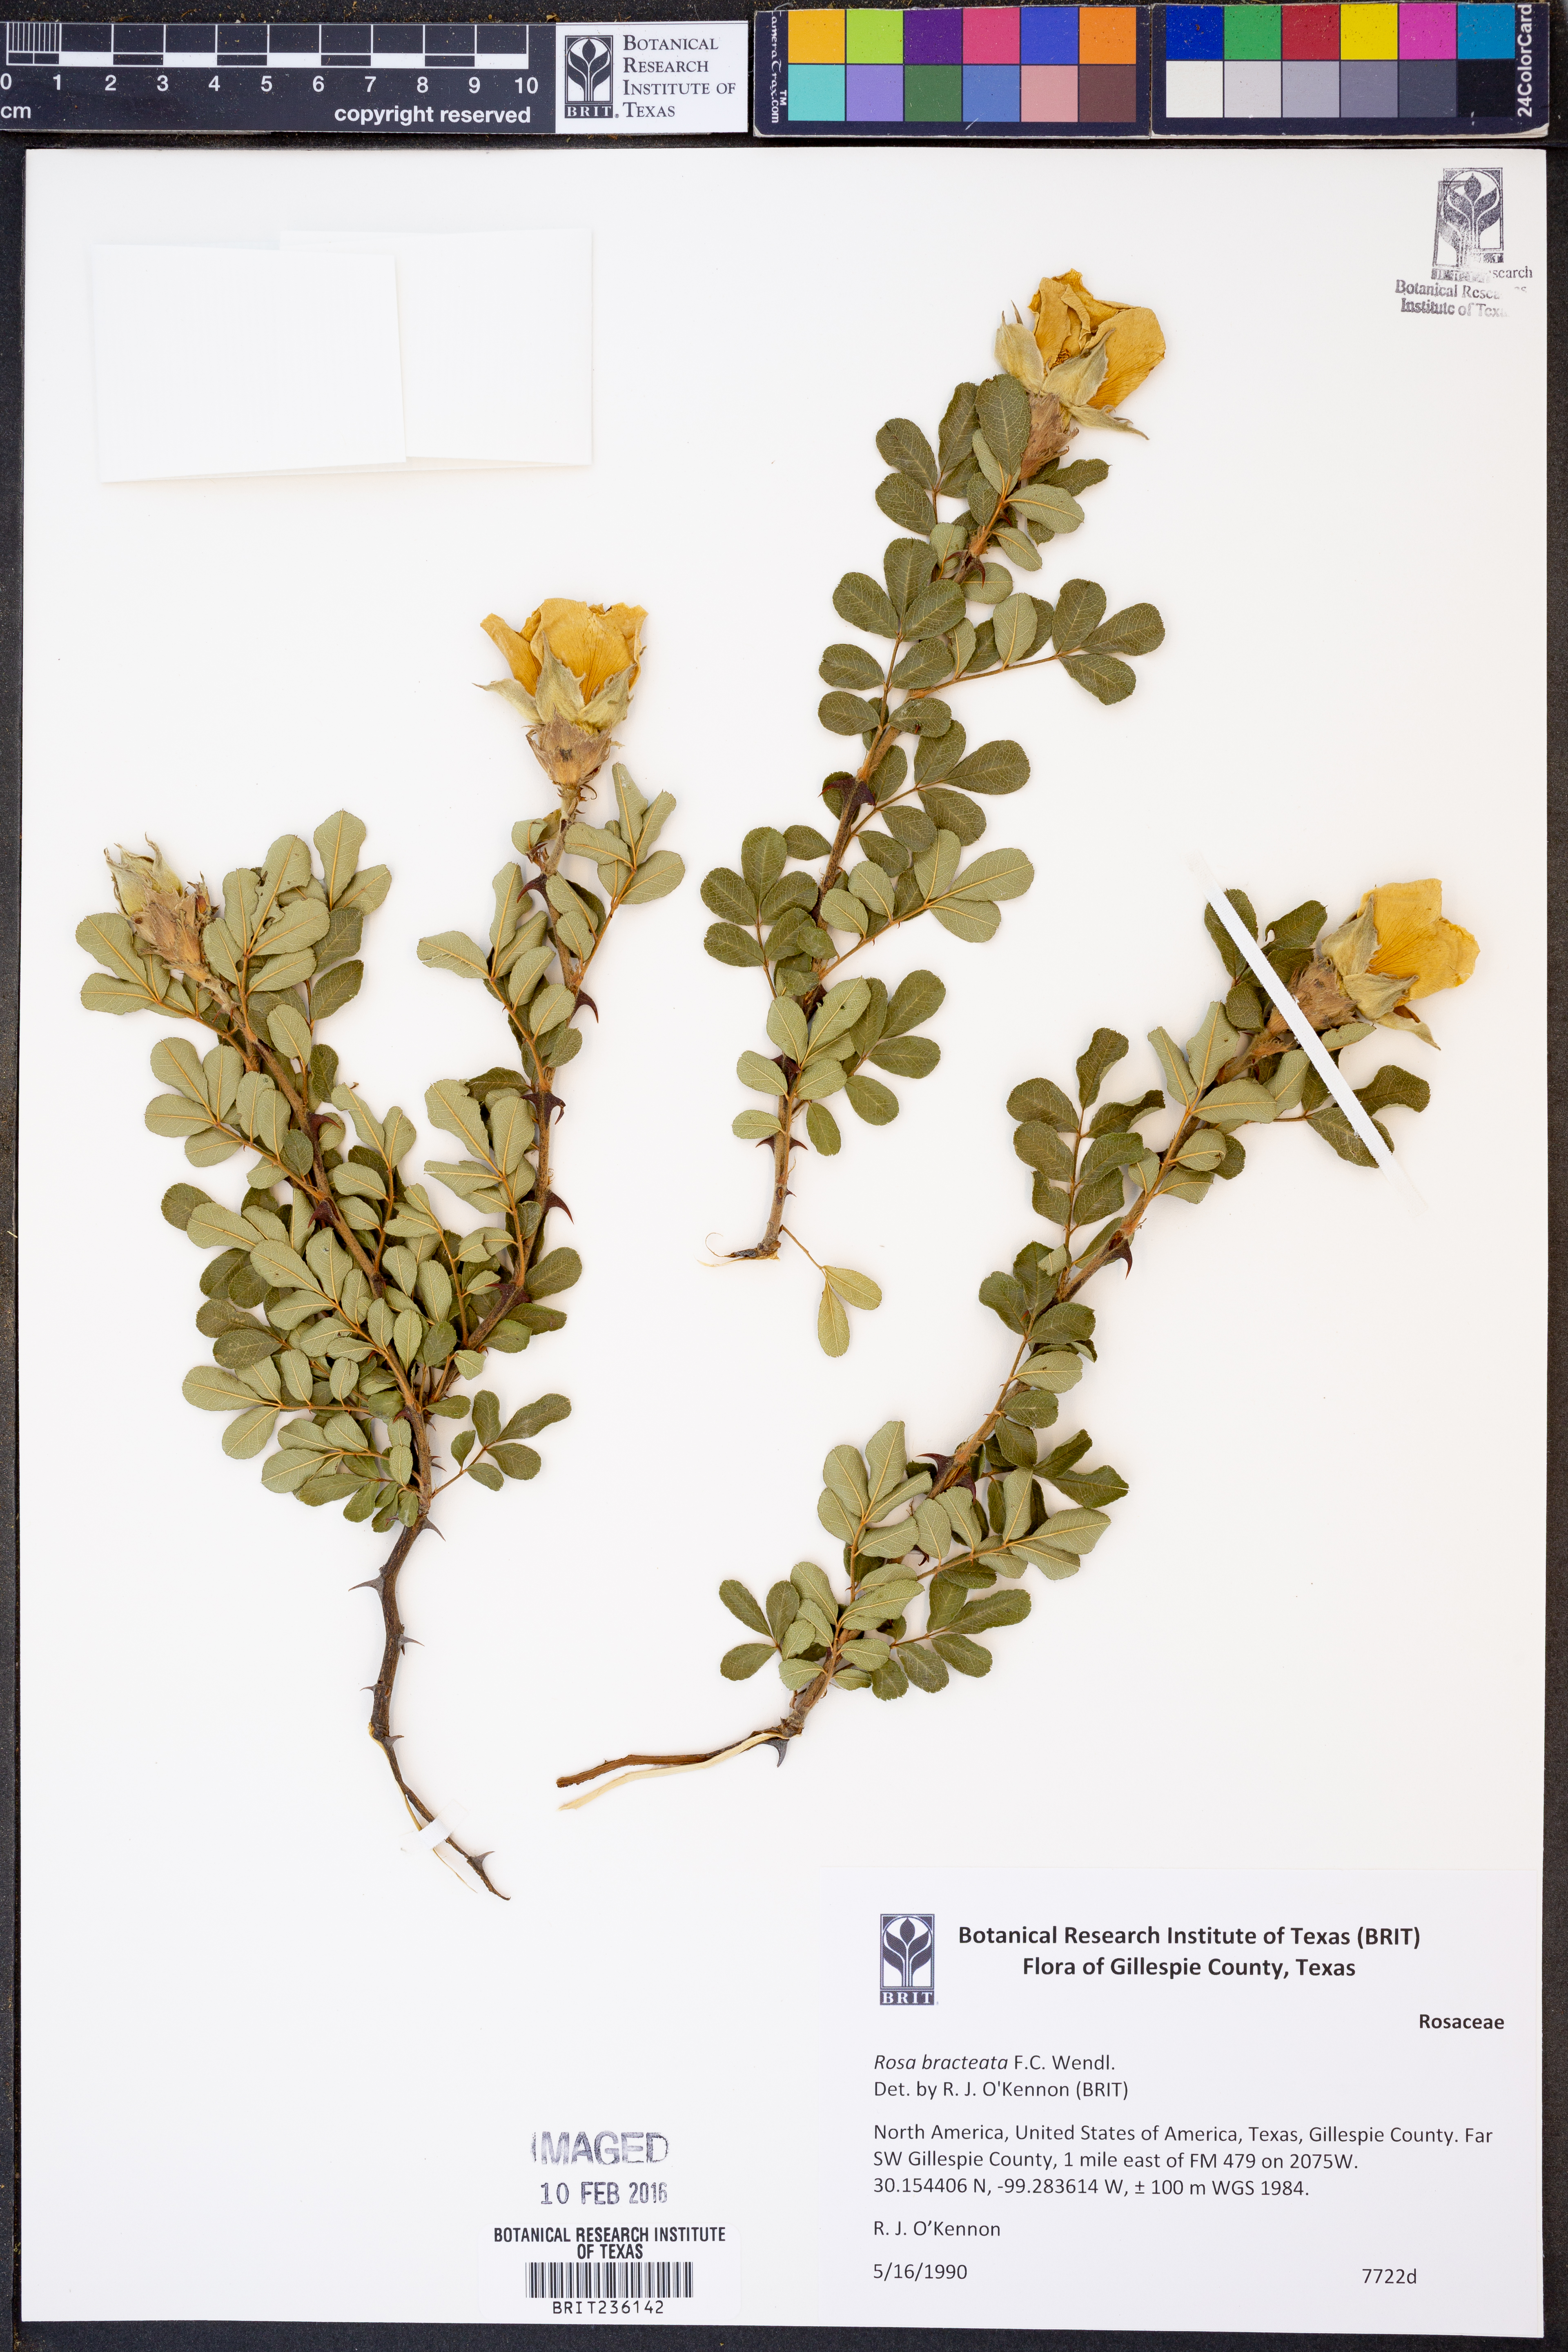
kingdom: Plantae
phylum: Tracheophyta
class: Magnoliopsida
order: Rosales
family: Rosaceae
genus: Rosa
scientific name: Rosa bracteata
